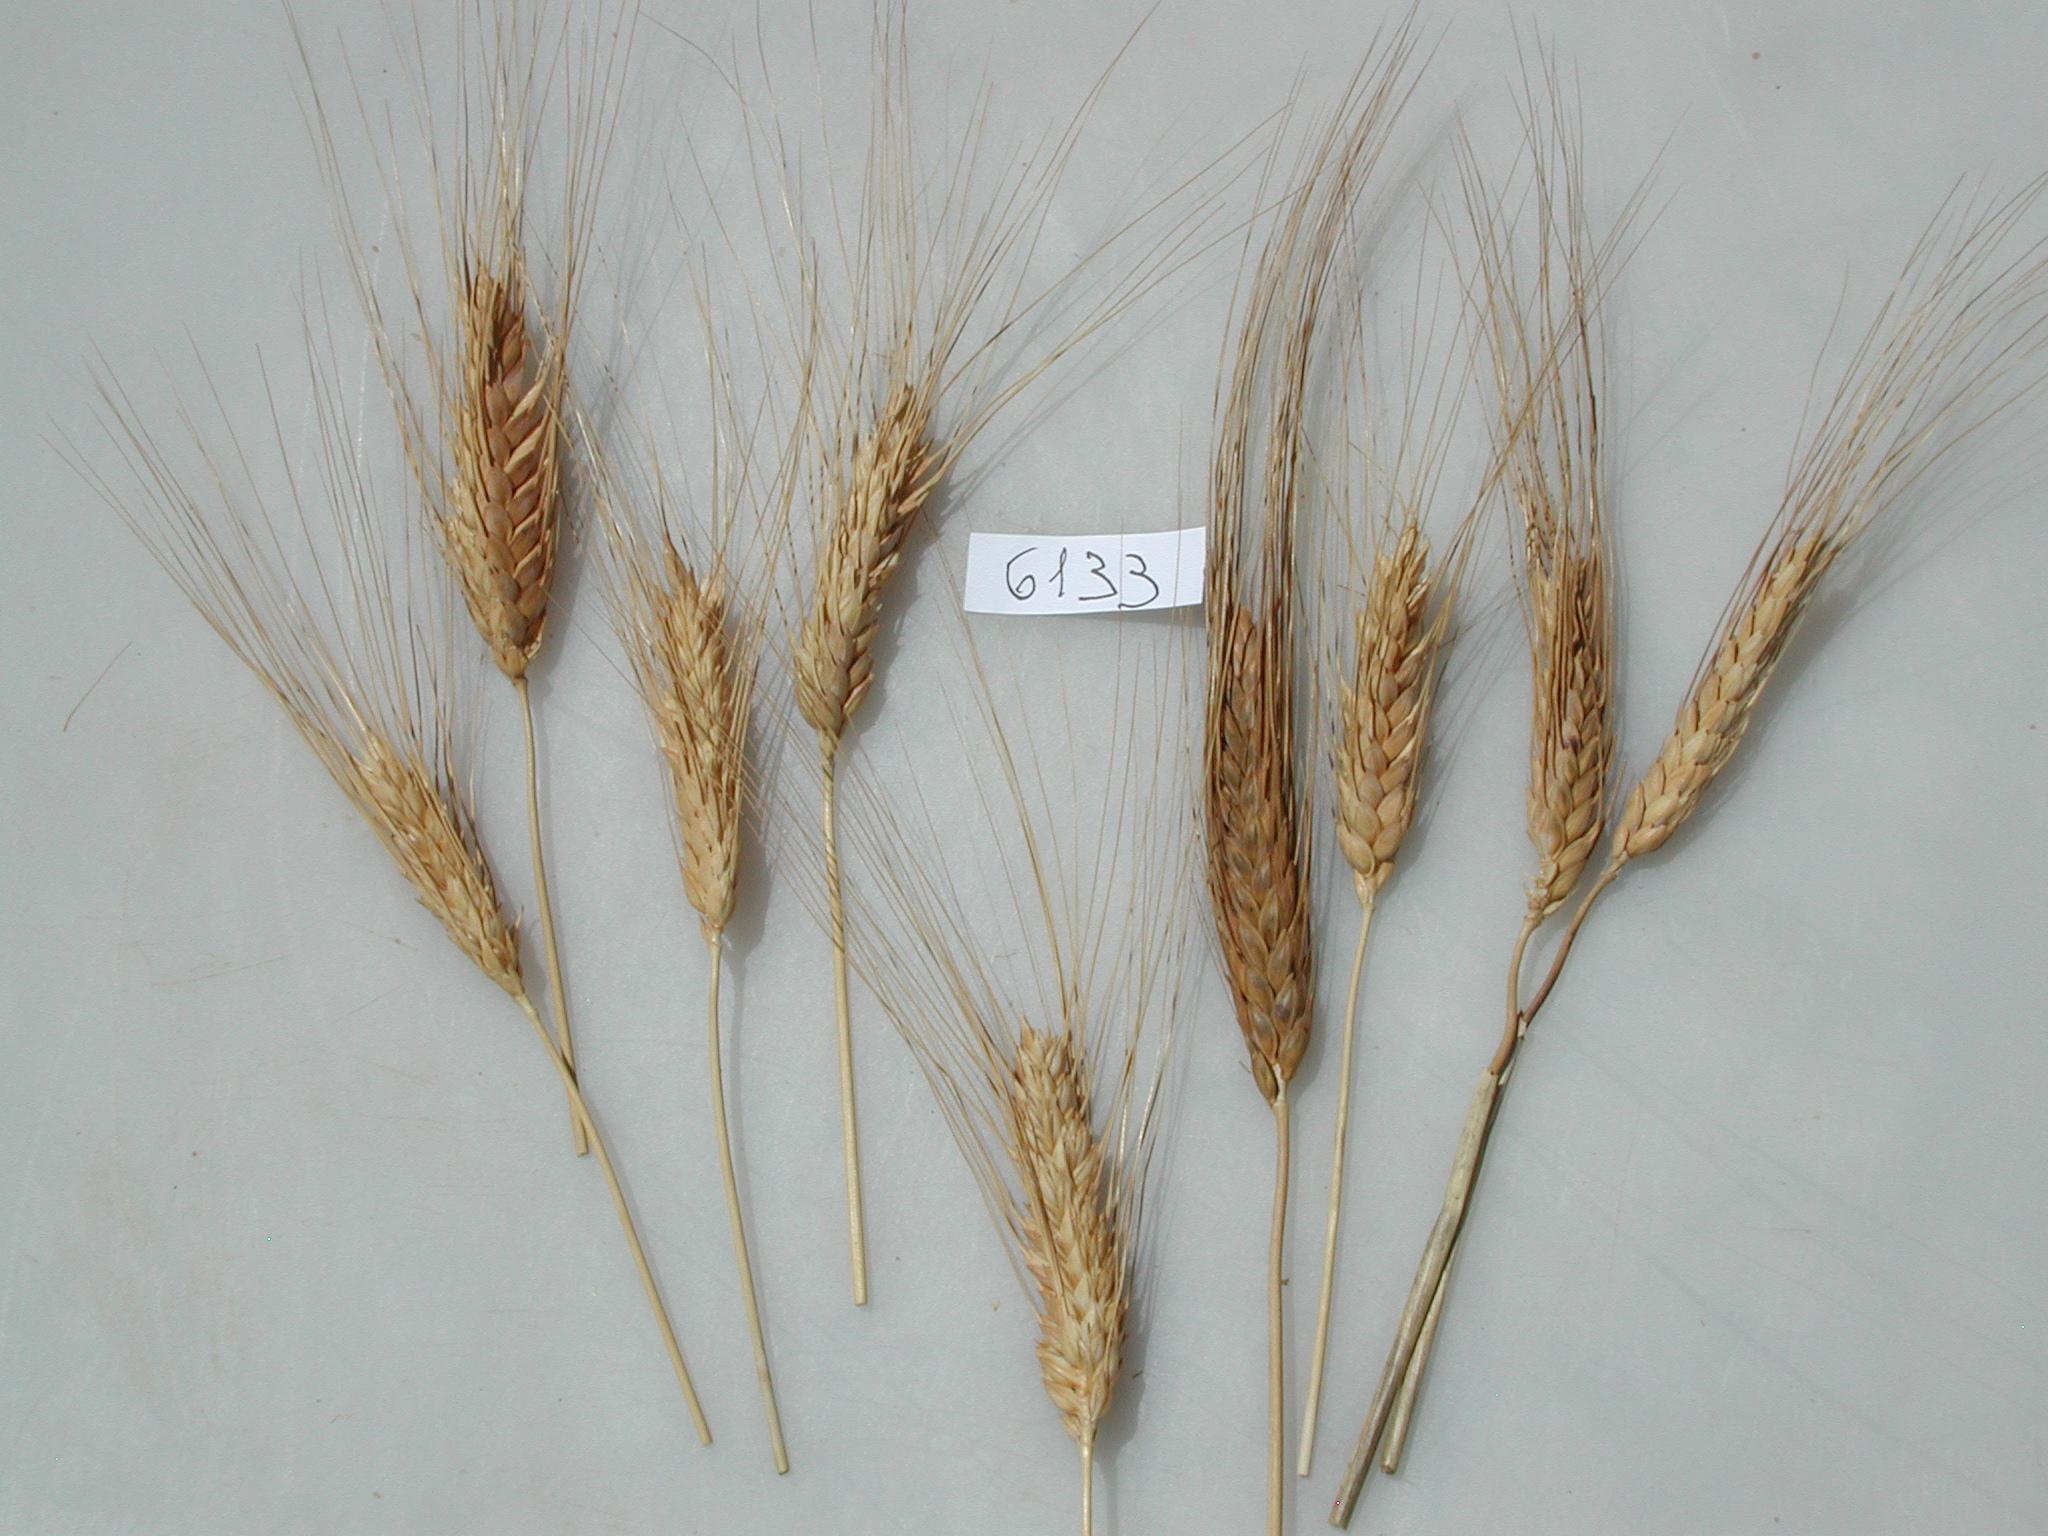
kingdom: Plantae
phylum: Tracheophyta
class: Liliopsida
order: Poales
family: Poaceae
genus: Triticum
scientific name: Triticum turgidum
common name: Wheat
